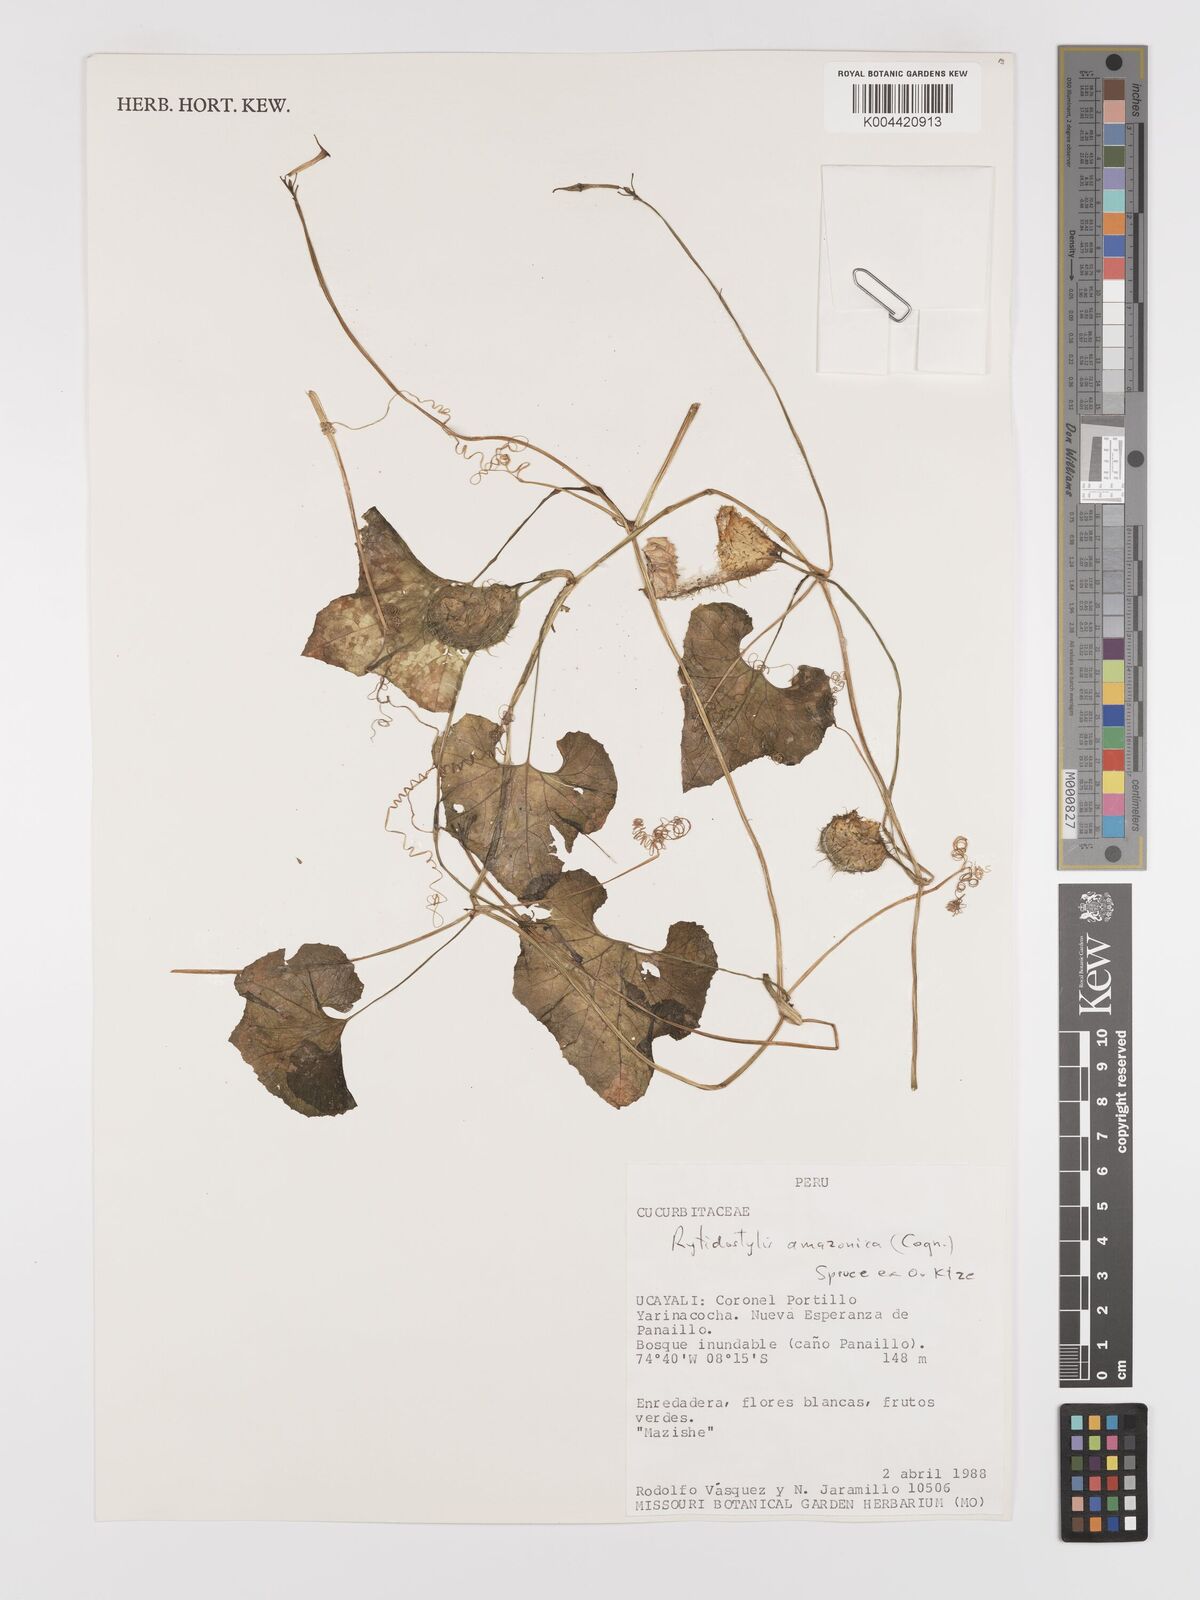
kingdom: Plantae
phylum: Tracheophyta
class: Magnoliopsida
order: Cucurbitales
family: Cucurbitaceae
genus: Cyclanthera
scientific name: Cyclanthera carthagenensis
